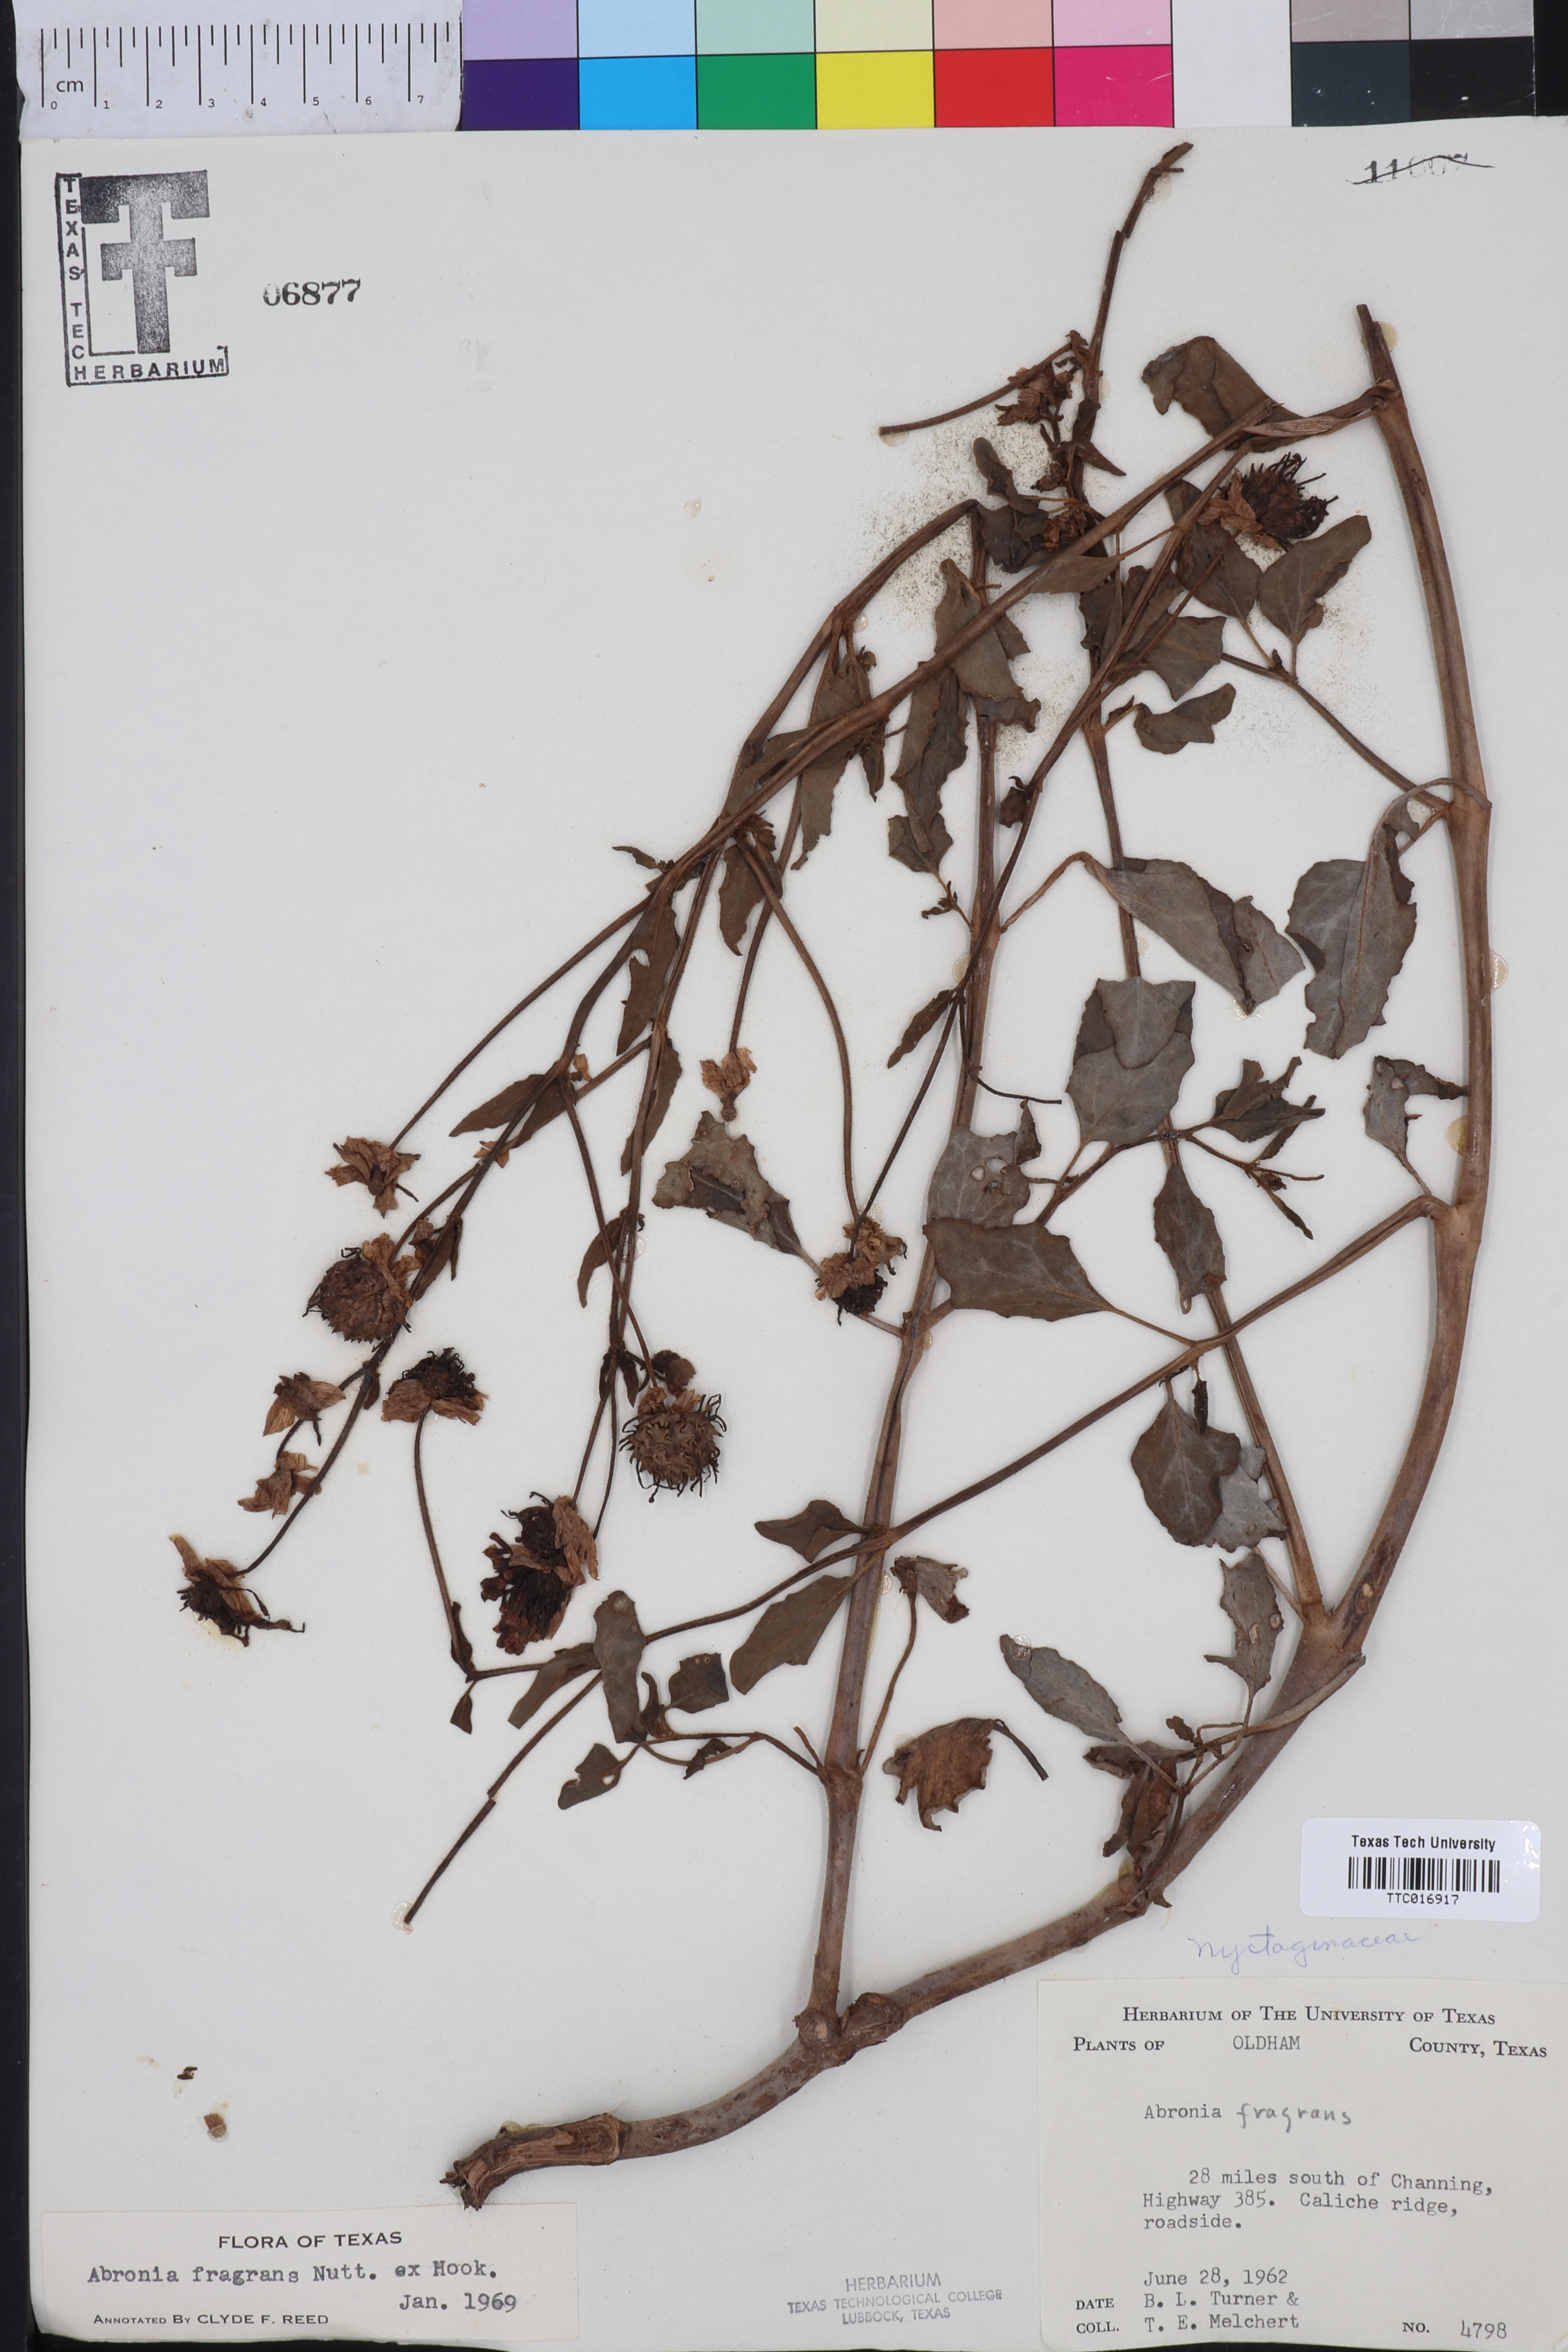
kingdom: Plantae
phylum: Tracheophyta
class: Magnoliopsida
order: Caryophyllales
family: Nyctaginaceae
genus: Abronia
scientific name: Abronia fragrans
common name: Fragrant sand-verbena
